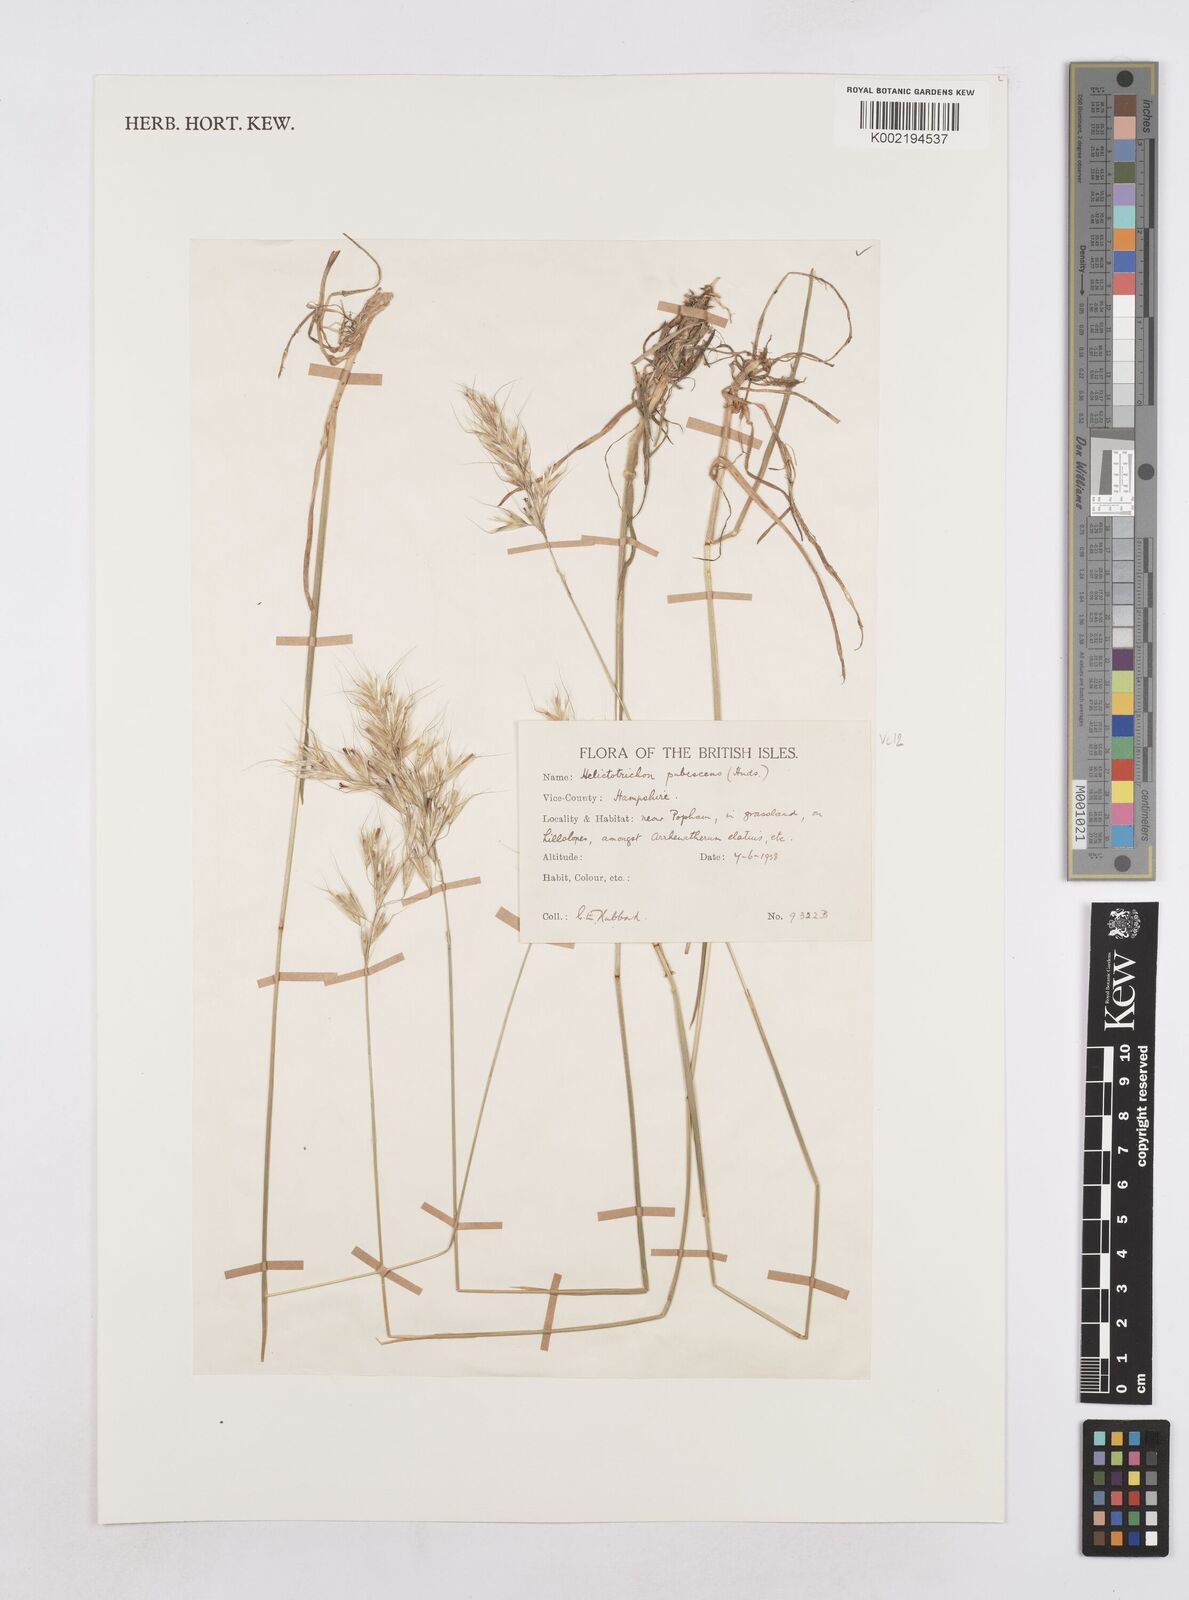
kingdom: Plantae
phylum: Tracheophyta
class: Liliopsida
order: Poales
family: Poaceae
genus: Avenula
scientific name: Avenula pubescens
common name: Downy alpine oatgrass
